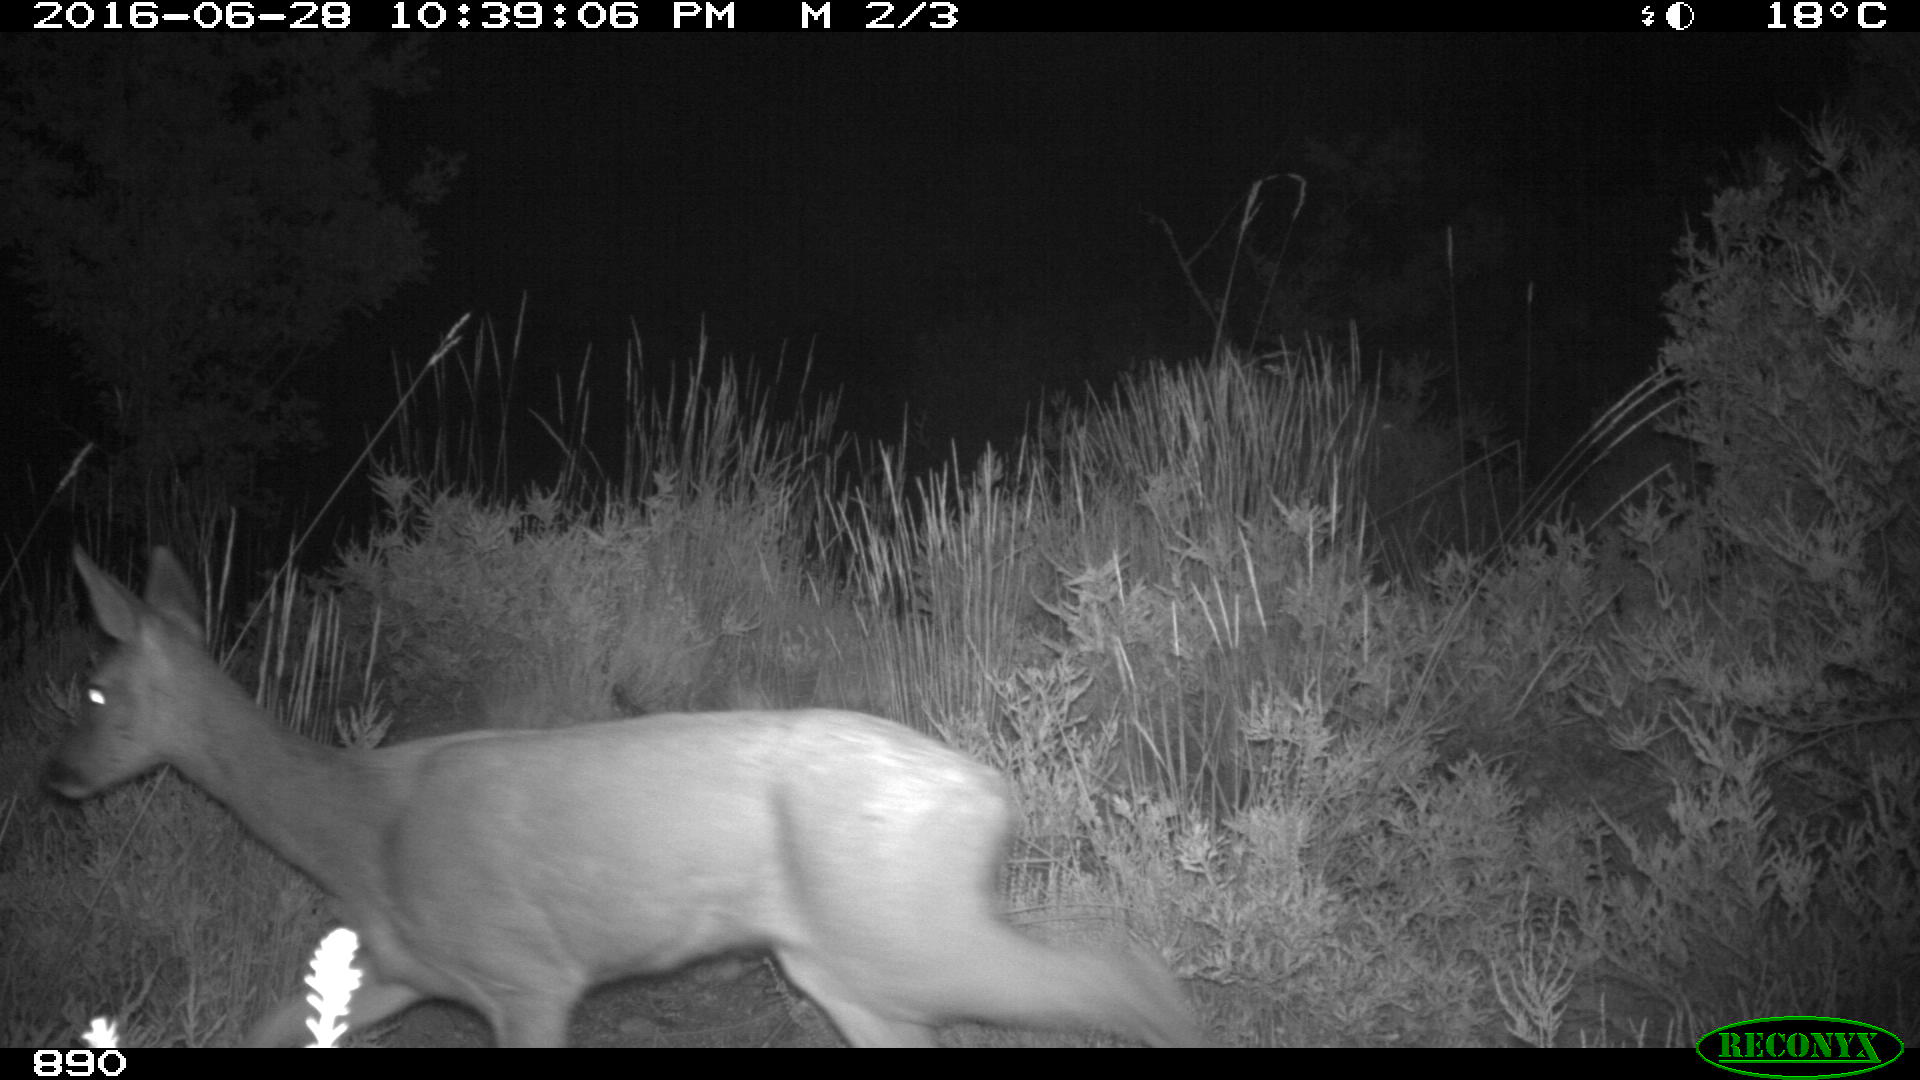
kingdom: Animalia
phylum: Chordata
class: Mammalia
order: Artiodactyla
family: Cervidae
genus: Capreolus
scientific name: Capreolus capreolus
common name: Western roe deer
